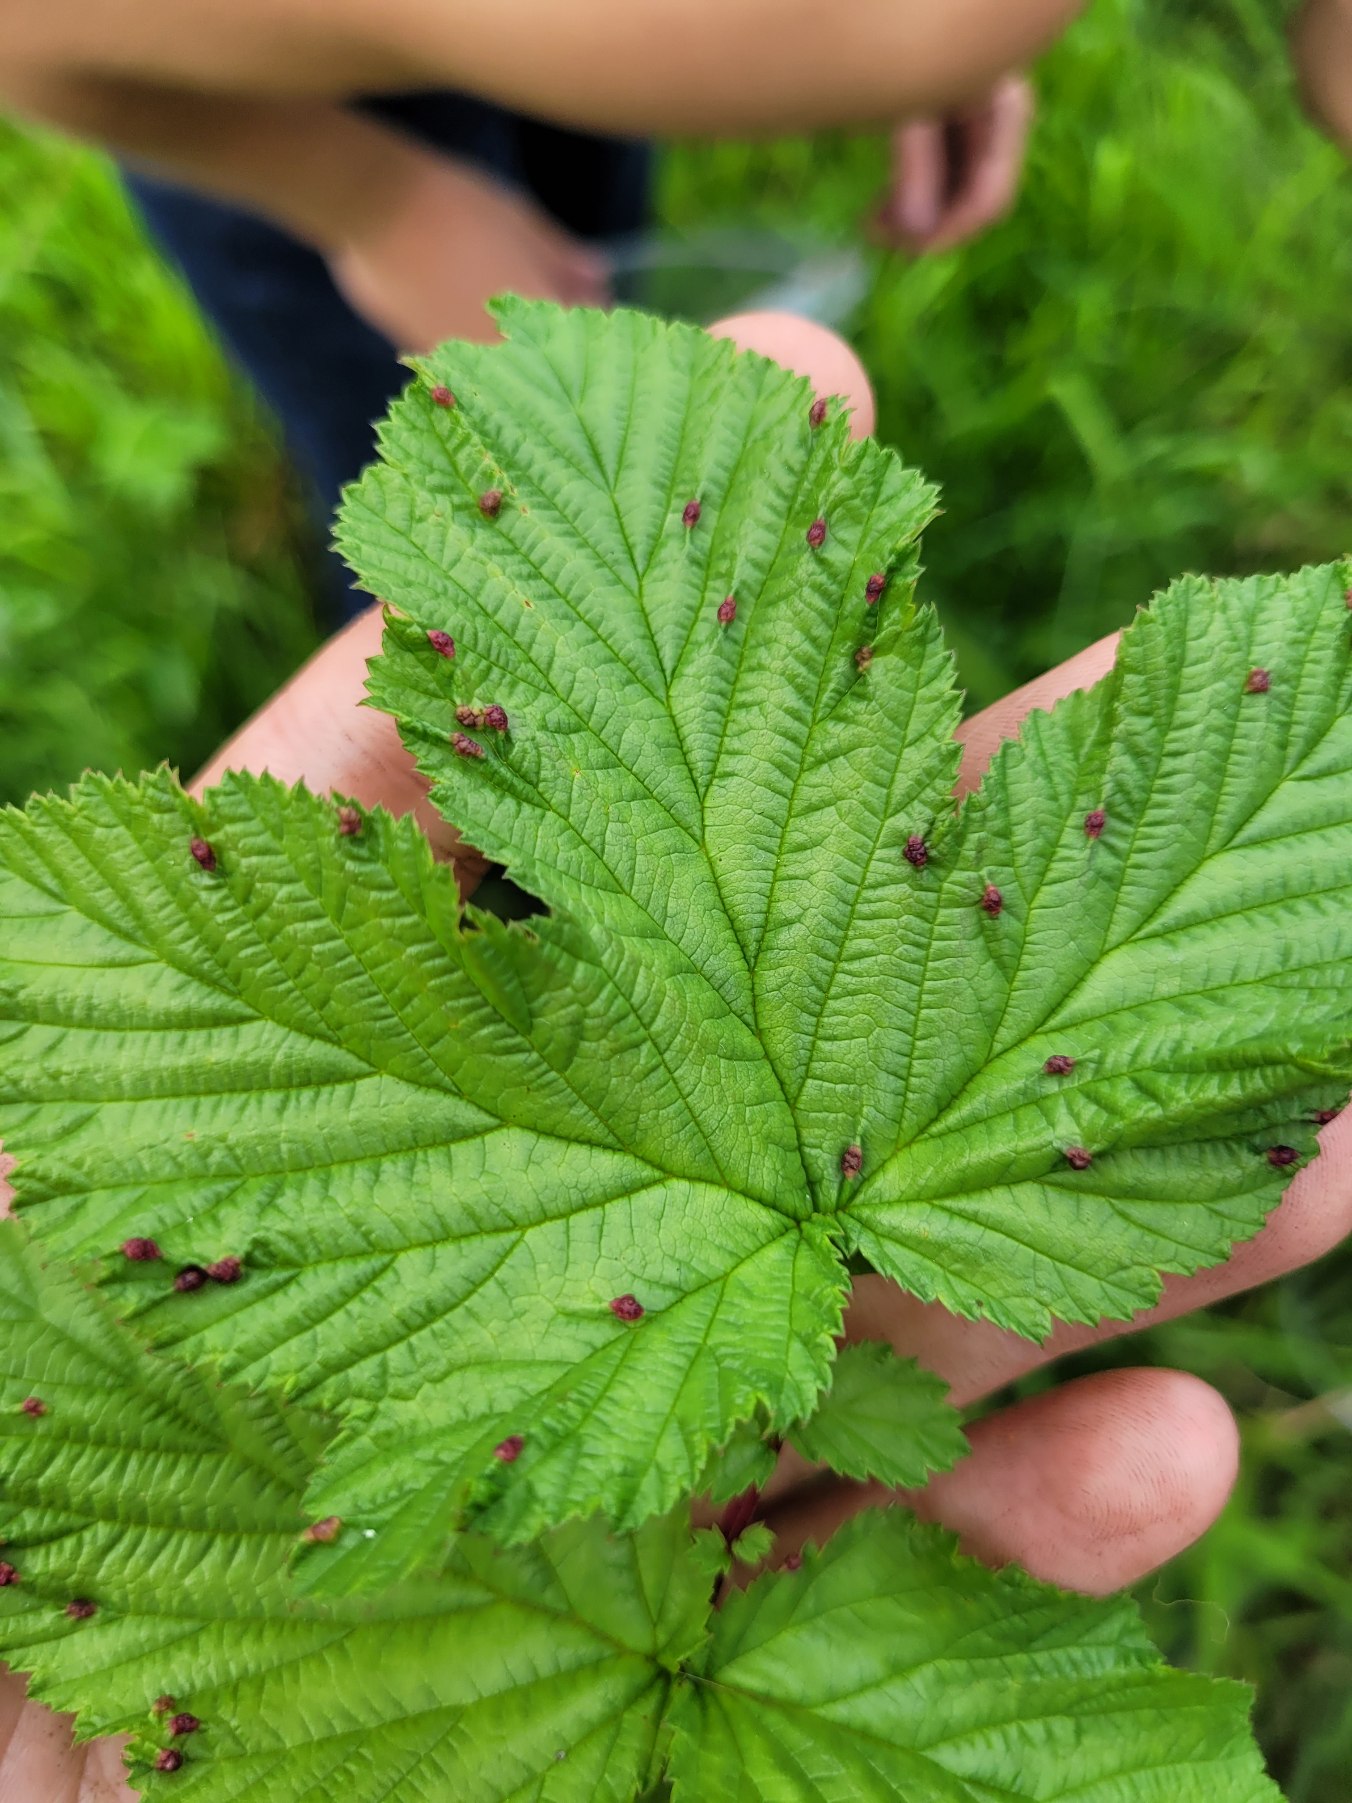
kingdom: Animalia
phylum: Arthropoda
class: Insecta
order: Diptera
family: Cecidomyiidae
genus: Dasineura
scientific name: Dasineura ulmaria
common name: Mjødurtgalmyg
